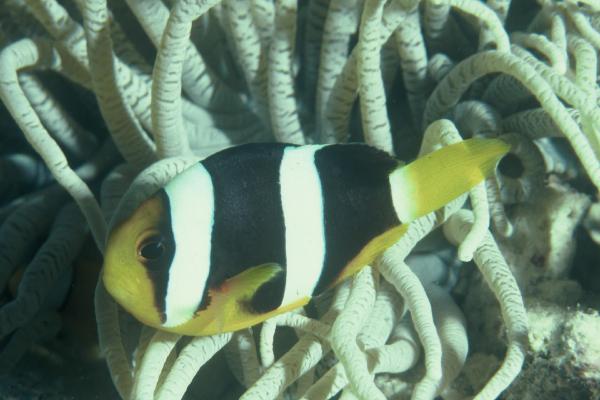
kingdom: Animalia
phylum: Chordata
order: Perciformes
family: Pomacentridae
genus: Amphiprion
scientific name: Amphiprion clarkii
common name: Clark's anemonefish
